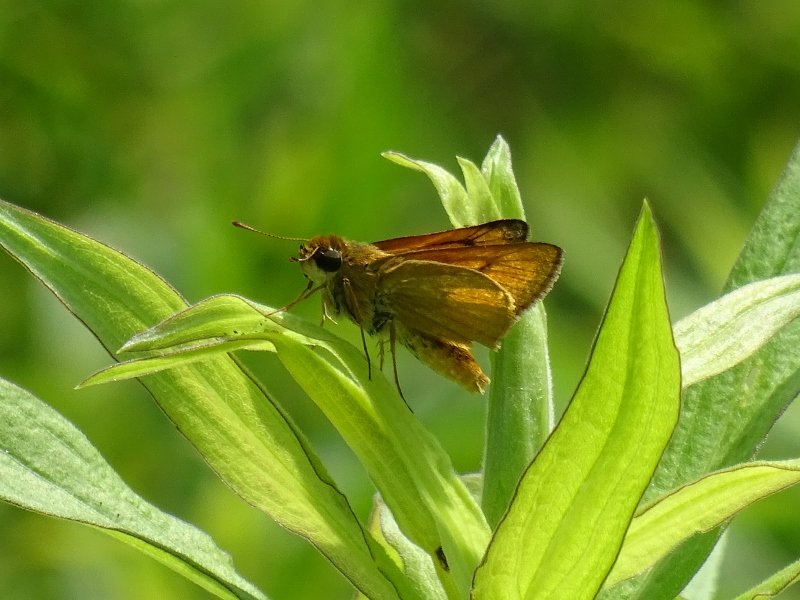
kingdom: Animalia
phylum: Arthropoda
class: Insecta
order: Lepidoptera
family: Hesperiidae
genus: Atrytone
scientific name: Atrytone delaware
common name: Delaware Skipper
